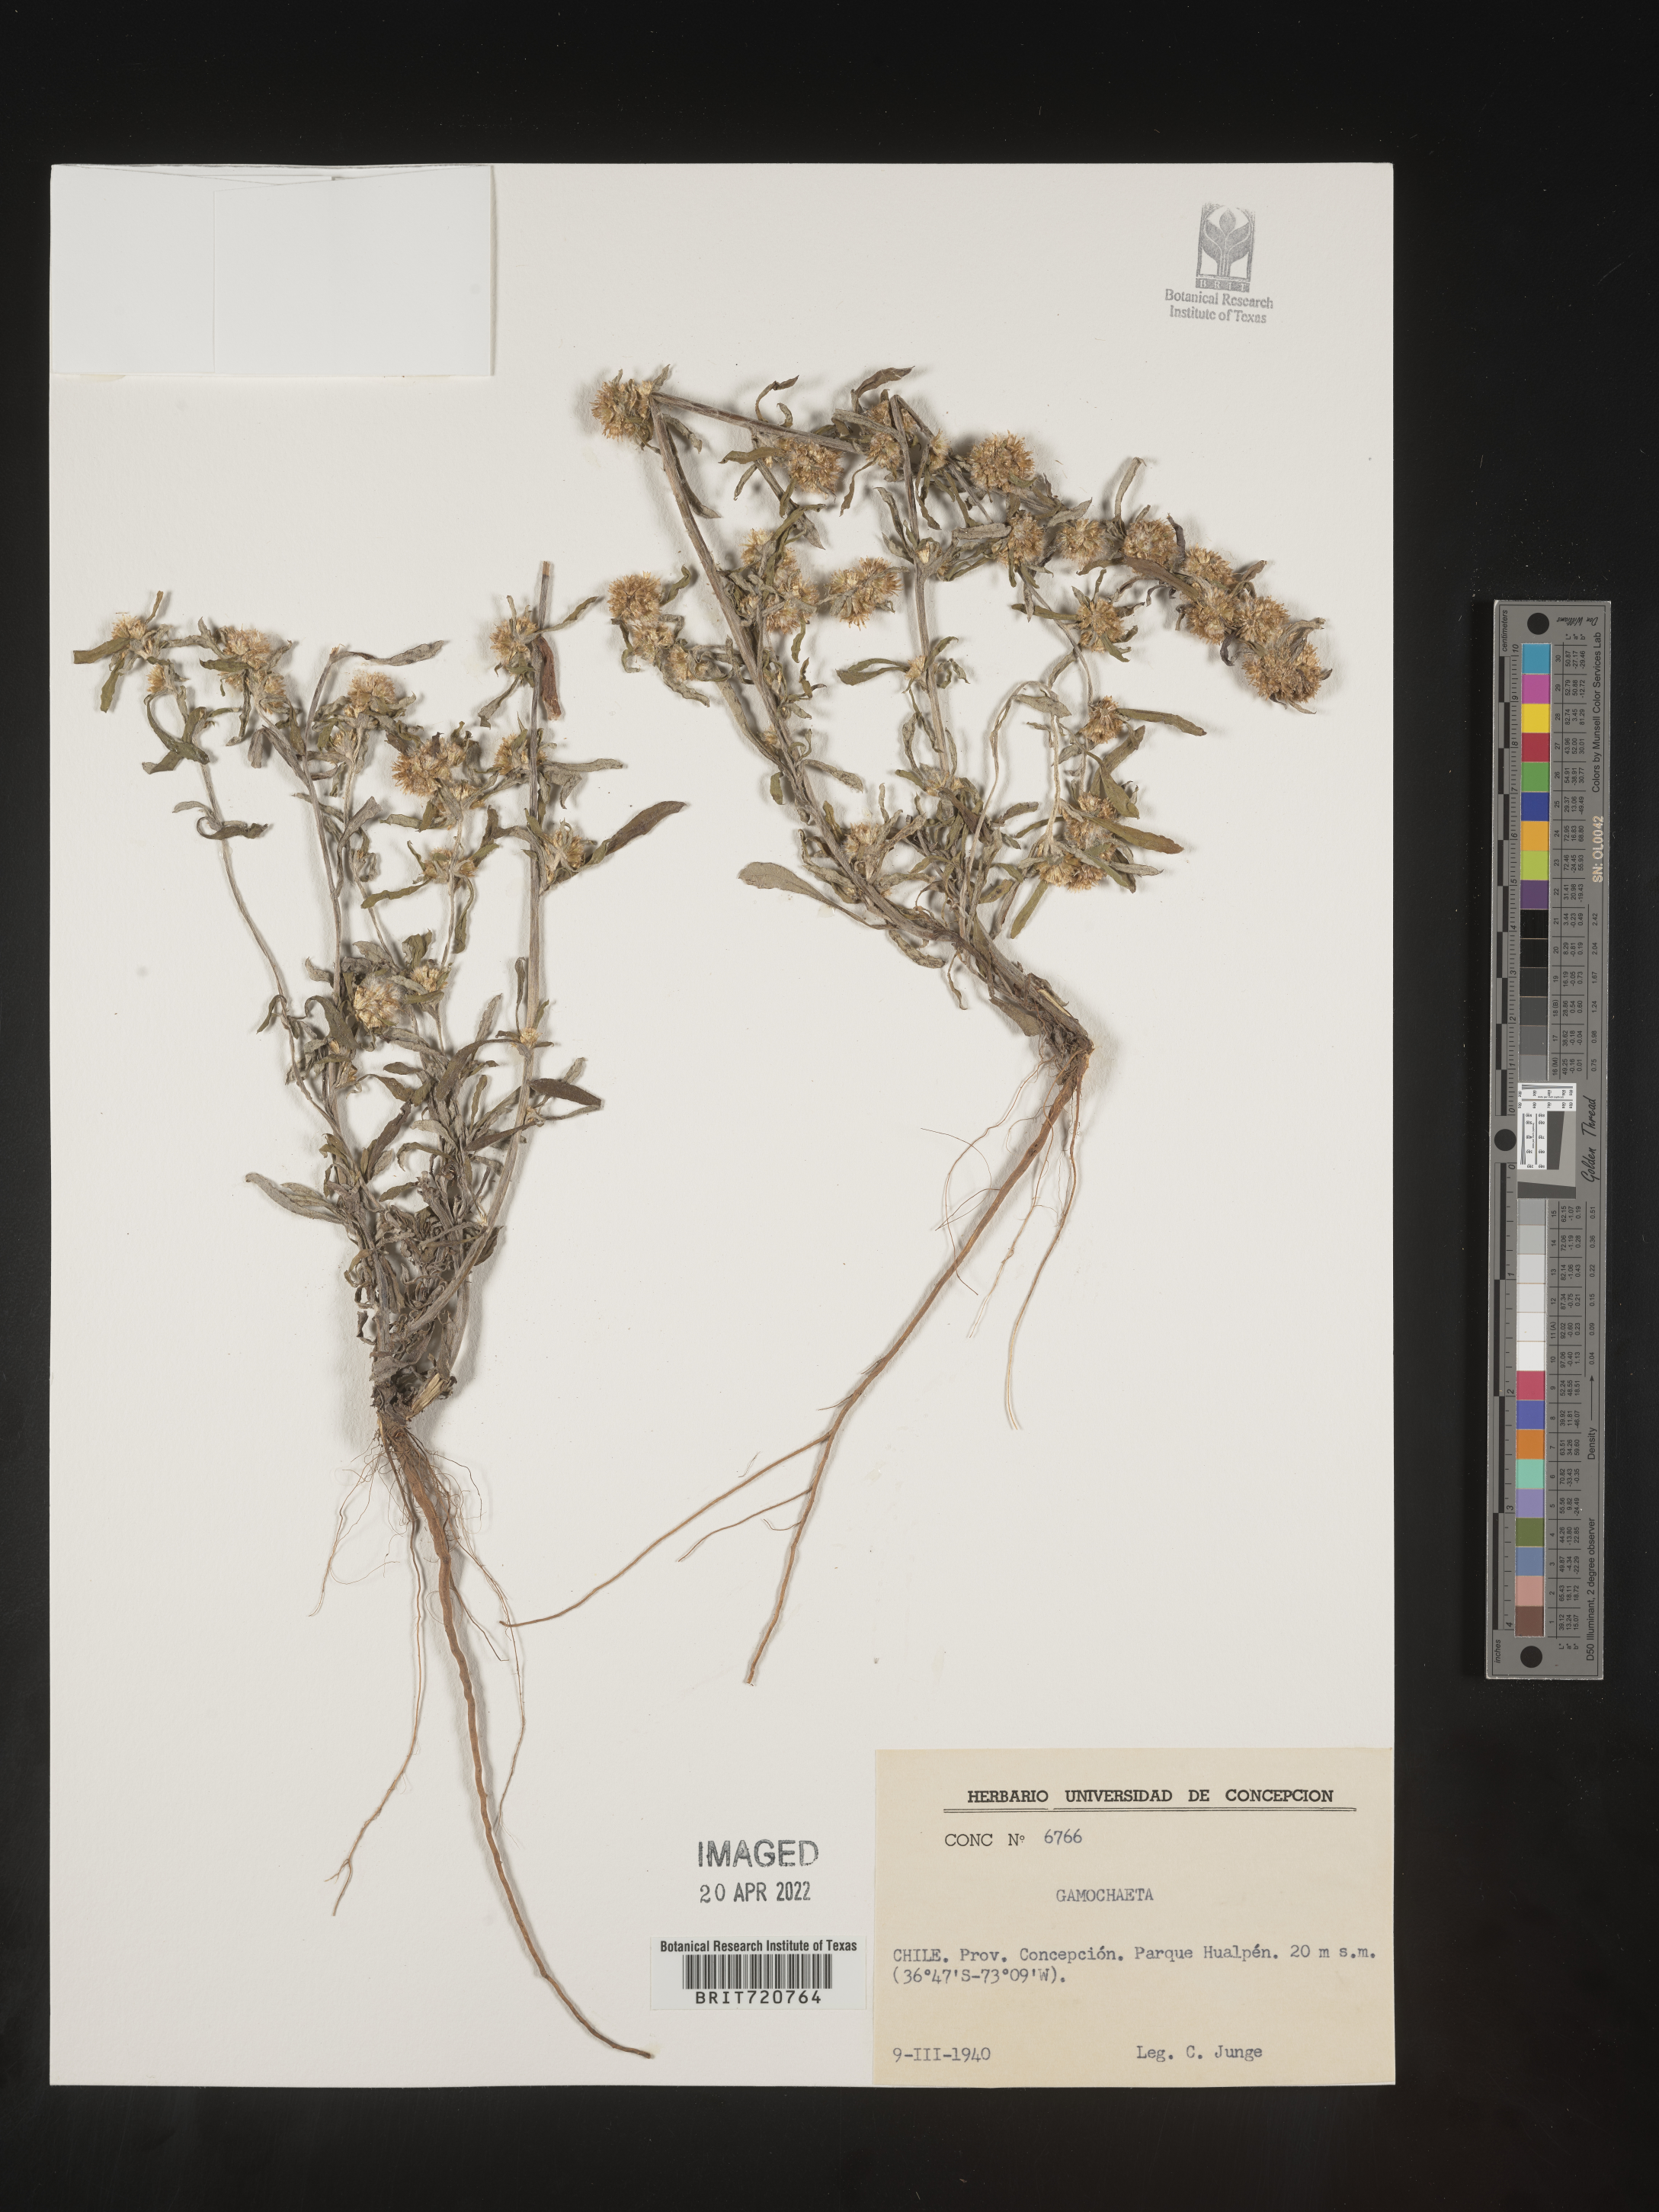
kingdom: Plantae
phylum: Tracheophyta
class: Magnoliopsida
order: Asterales
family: Asteraceae
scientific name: Asteraceae
